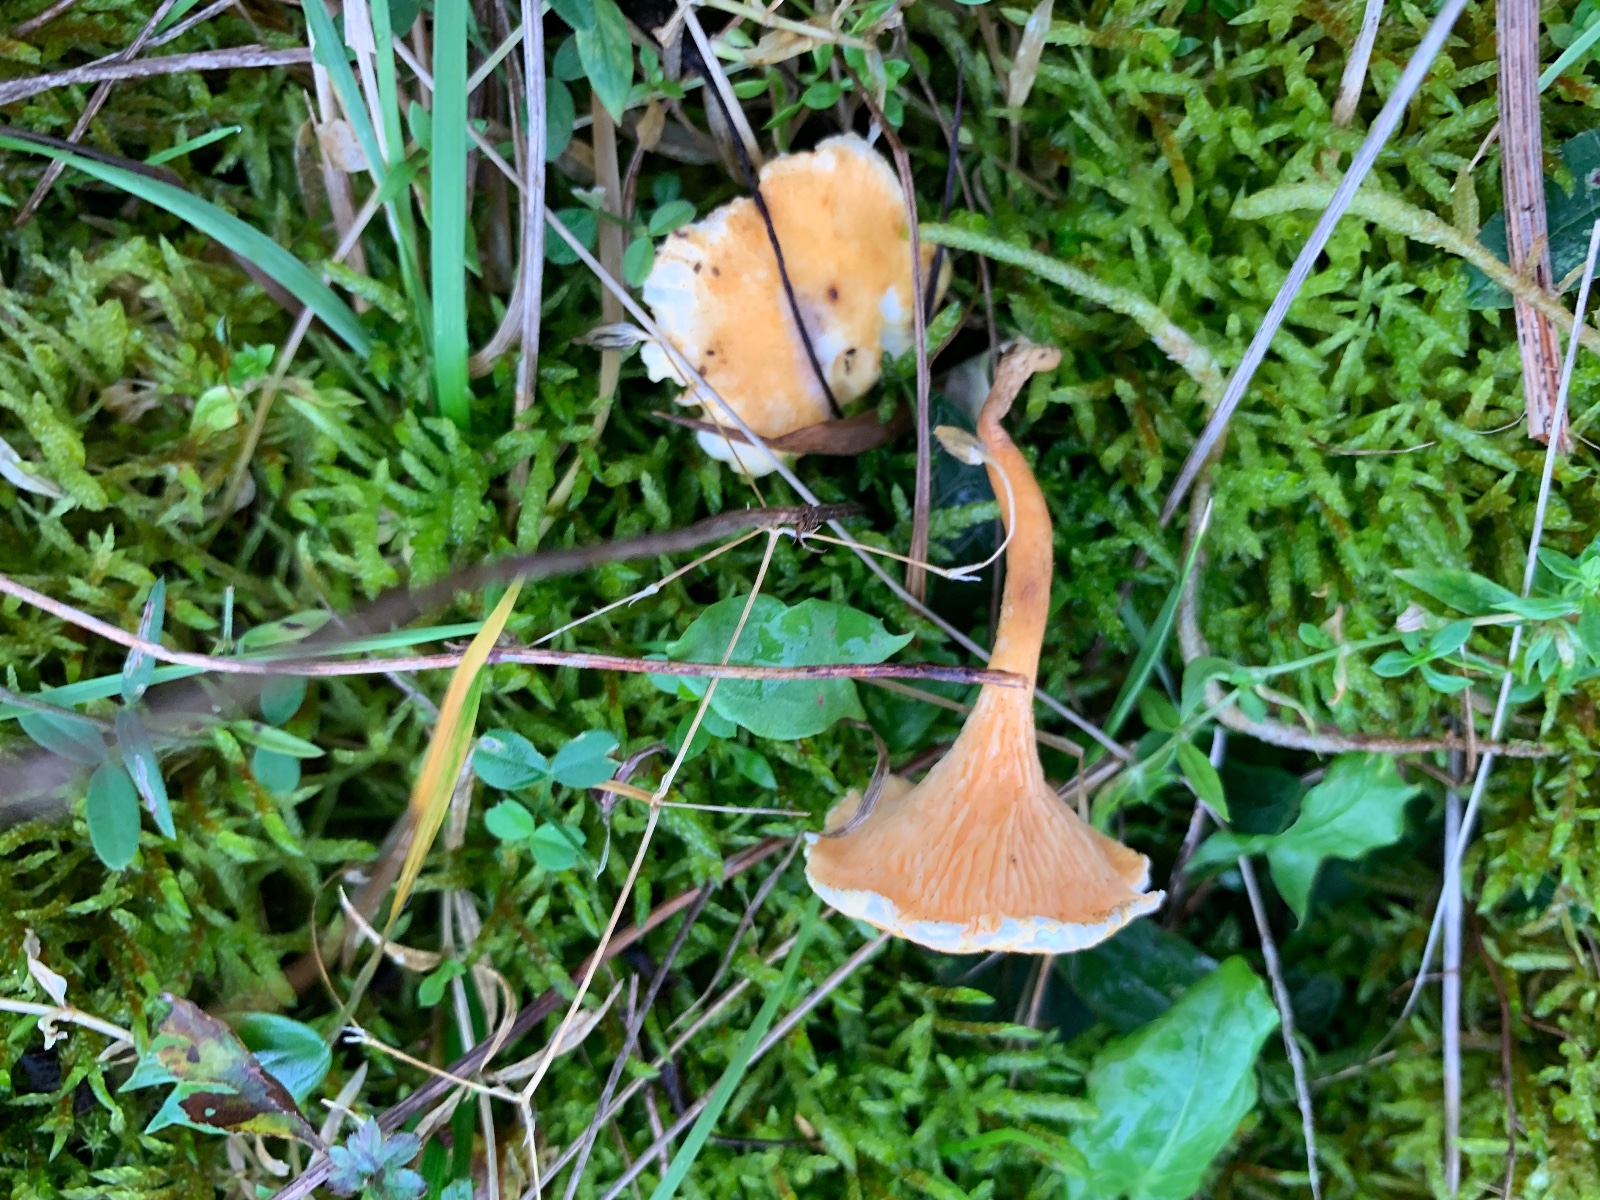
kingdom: Fungi
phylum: Basidiomycota
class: Agaricomycetes
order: Boletales
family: Hygrophoropsidaceae
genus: Hygrophoropsis
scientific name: Hygrophoropsis aurantiaca
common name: almindelig orangekantarel
